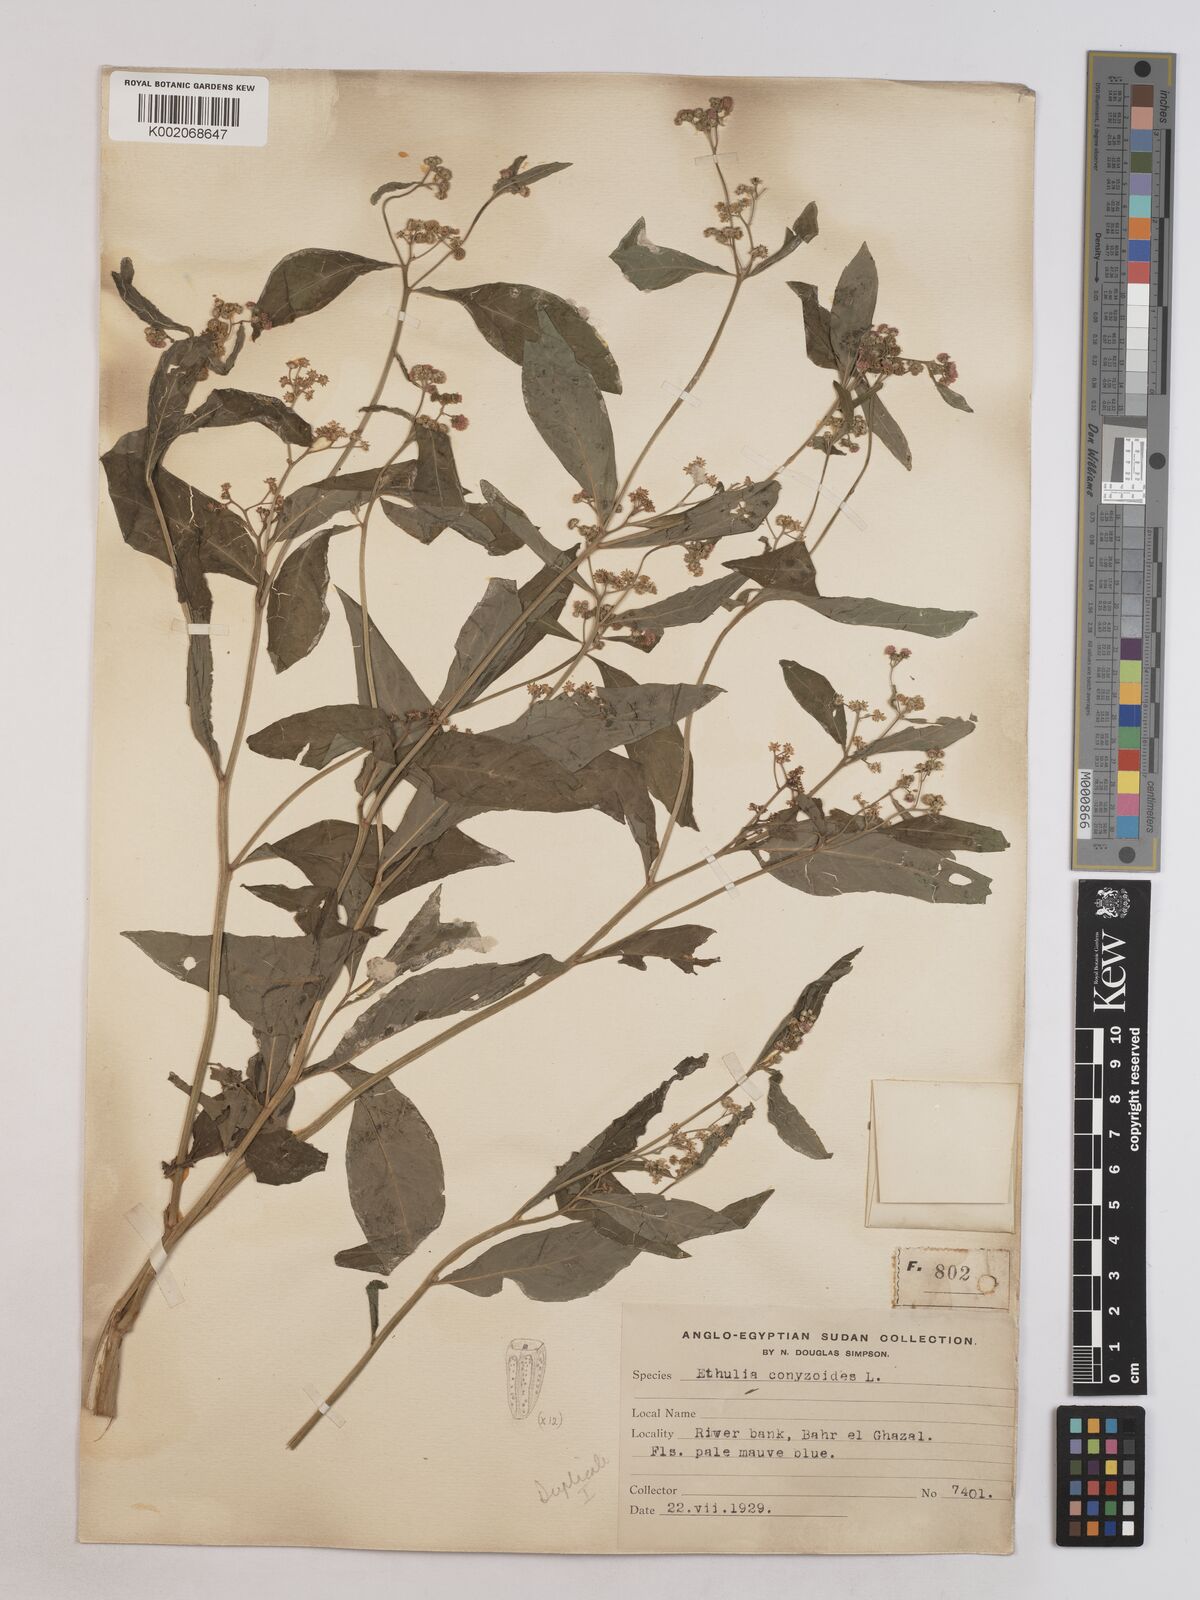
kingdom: Plantae
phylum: Tracheophyta
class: Magnoliopsida
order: Asterales
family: Asteraceae
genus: Ethulia
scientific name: Ethulia conyzoides
